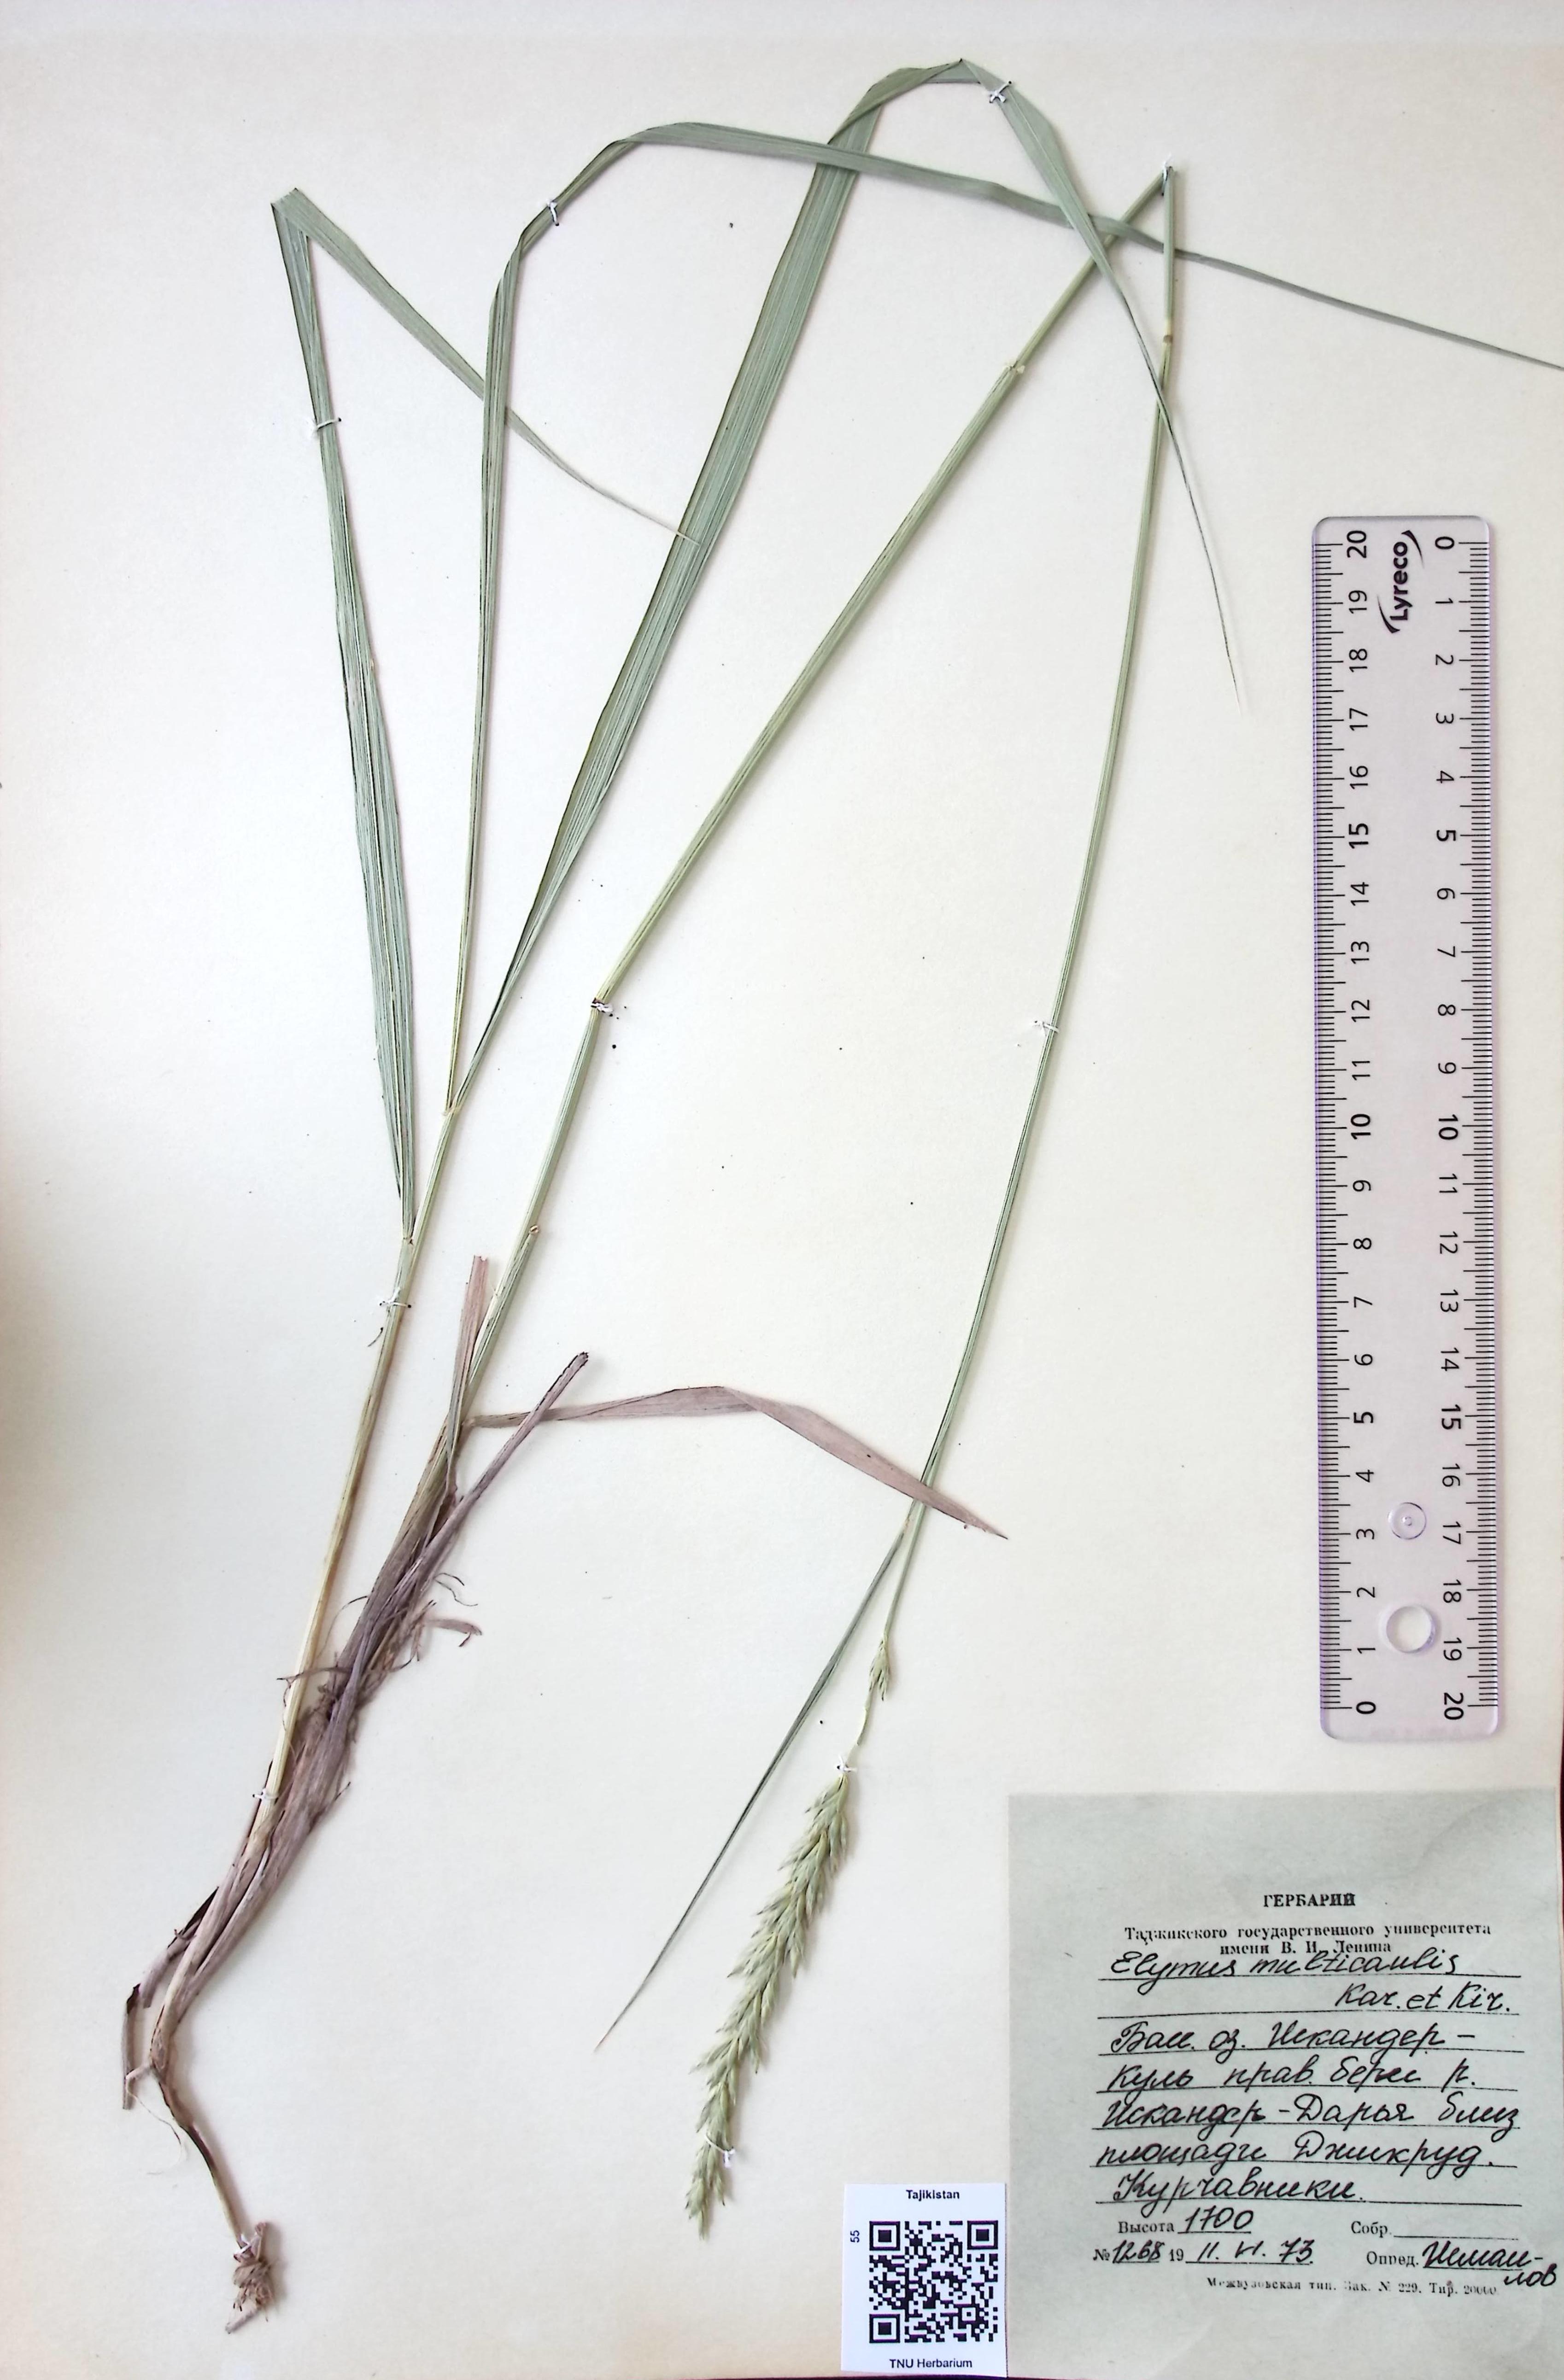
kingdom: Plantae
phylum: Tracheophyta
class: Liliopsida
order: Poales
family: Poaceae
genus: Leymus
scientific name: Leymus multicaulis
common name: Manystem wildrye
